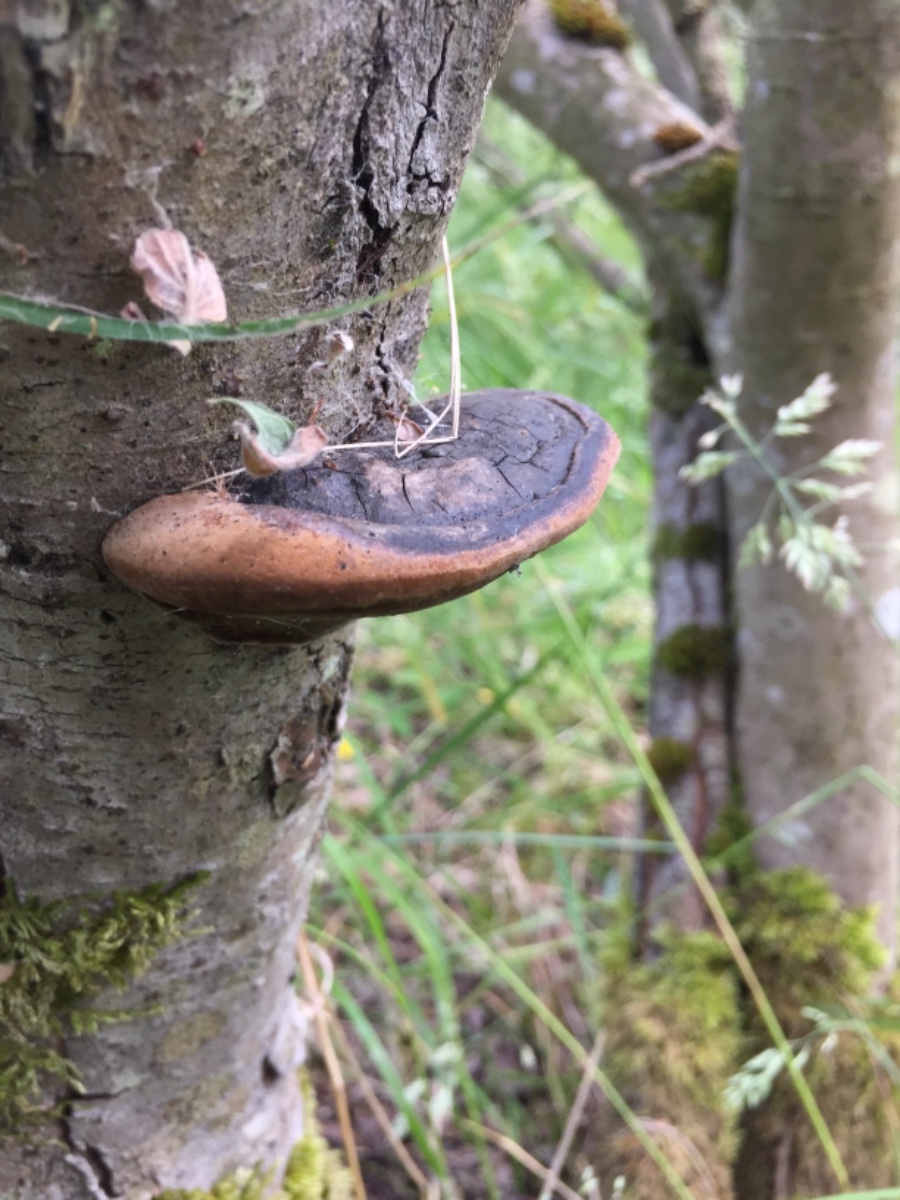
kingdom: Fungi
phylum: Basidiomycota
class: Agaricomycetes
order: Hymenochaetales
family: Hymenochaetaceae
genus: Phellinus
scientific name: Phellinus igniarius
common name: almindelig ildporesvamp
